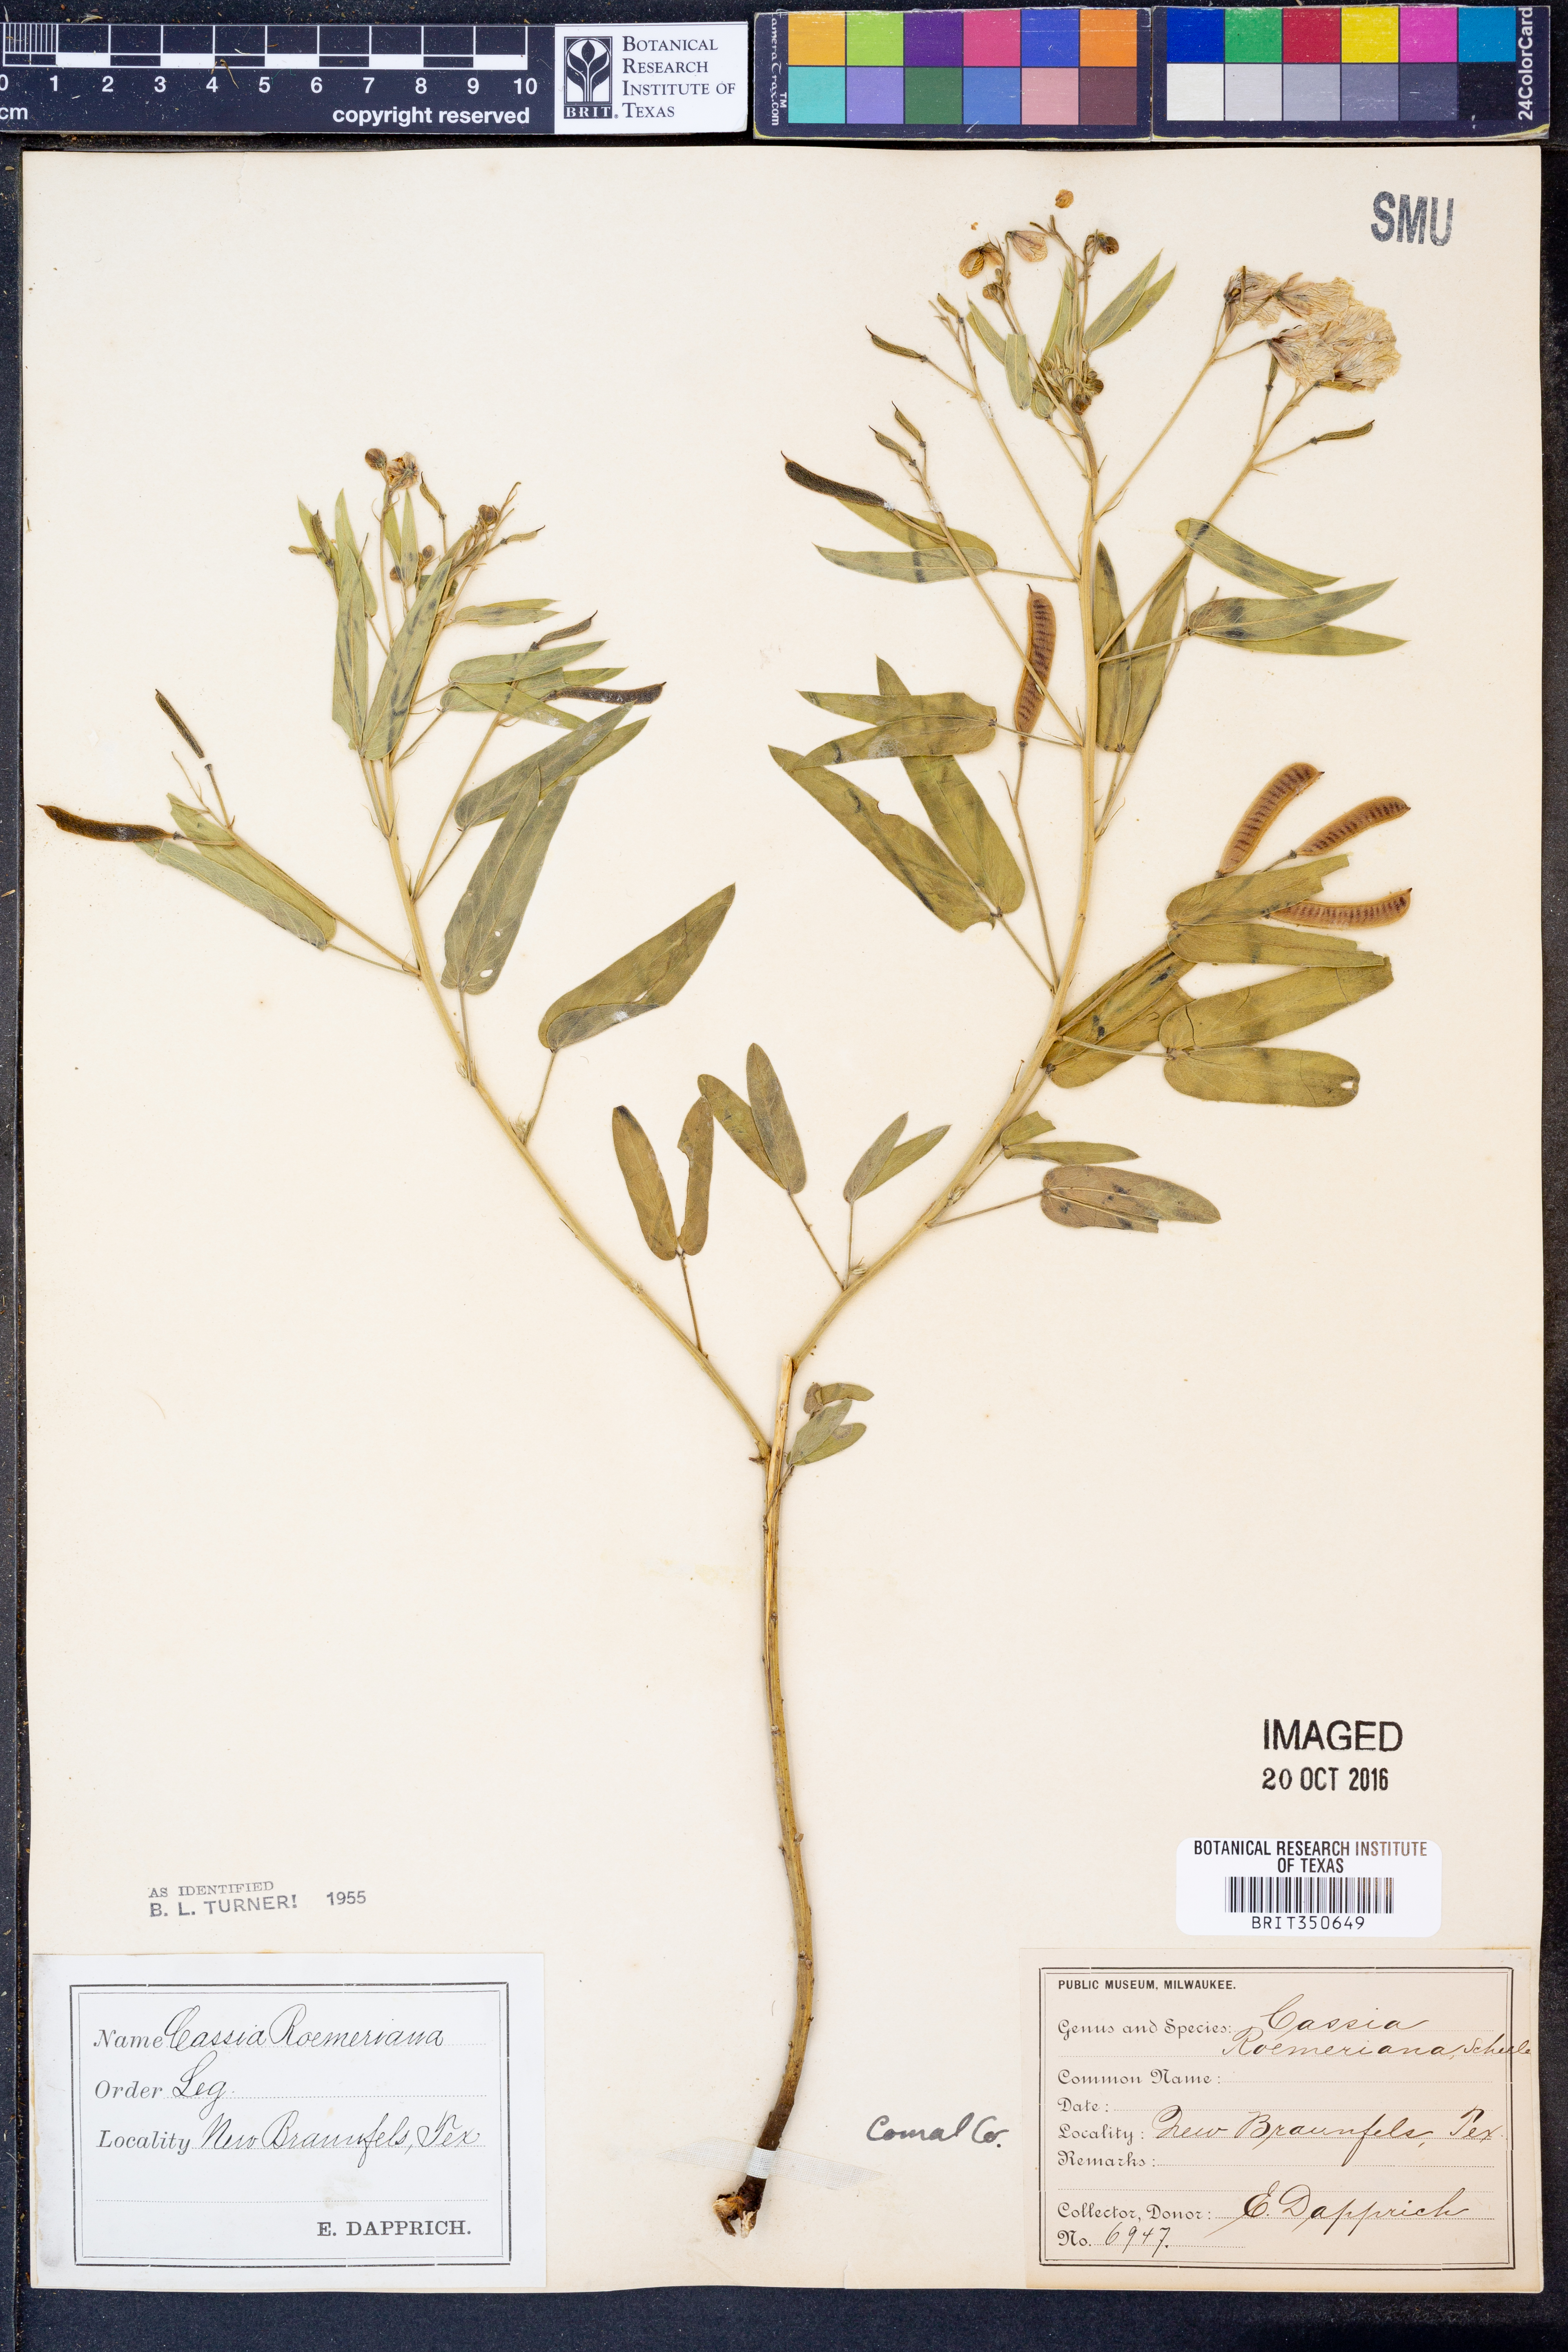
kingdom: Plantae
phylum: Tracheophyta
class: Magnoliopsida
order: Fabales
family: Fabaceae
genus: Senna
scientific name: Senna roemeriana
